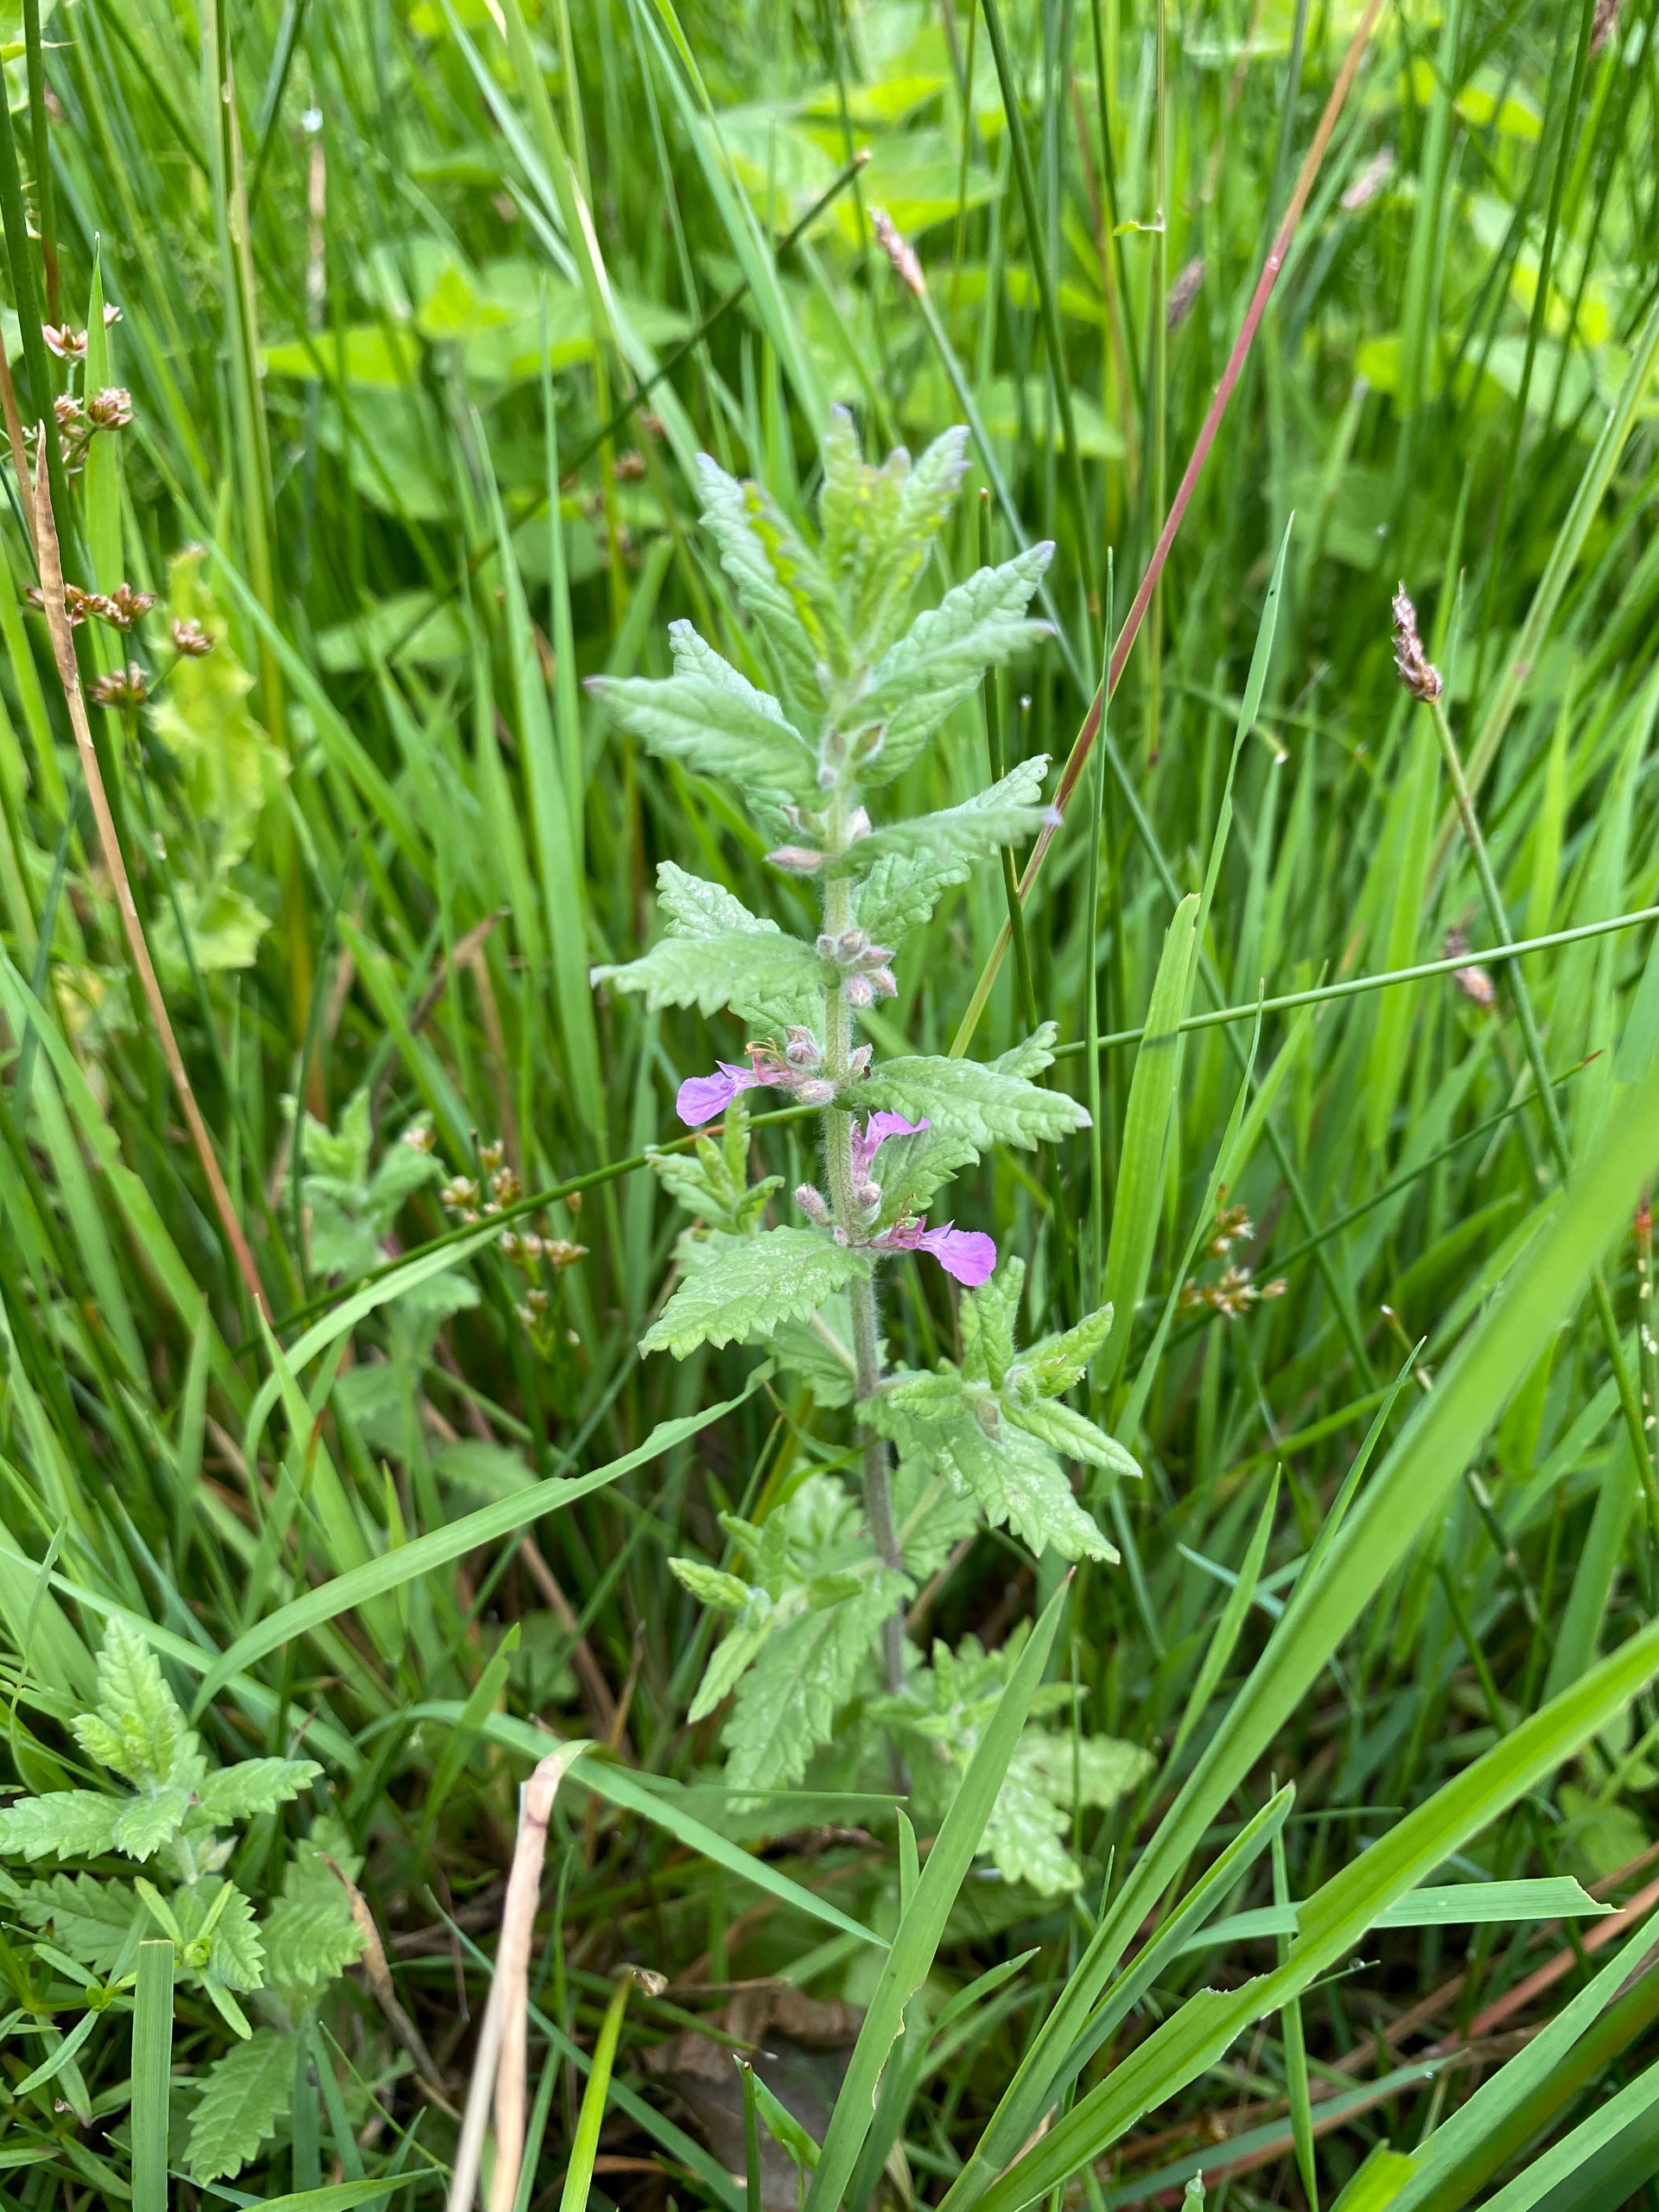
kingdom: Plantae
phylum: Tracheophyta
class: Magnoliopsida
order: Lamiales
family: Lamiaceae
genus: Teucrium
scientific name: Teucrium scordium
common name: Løgurt
